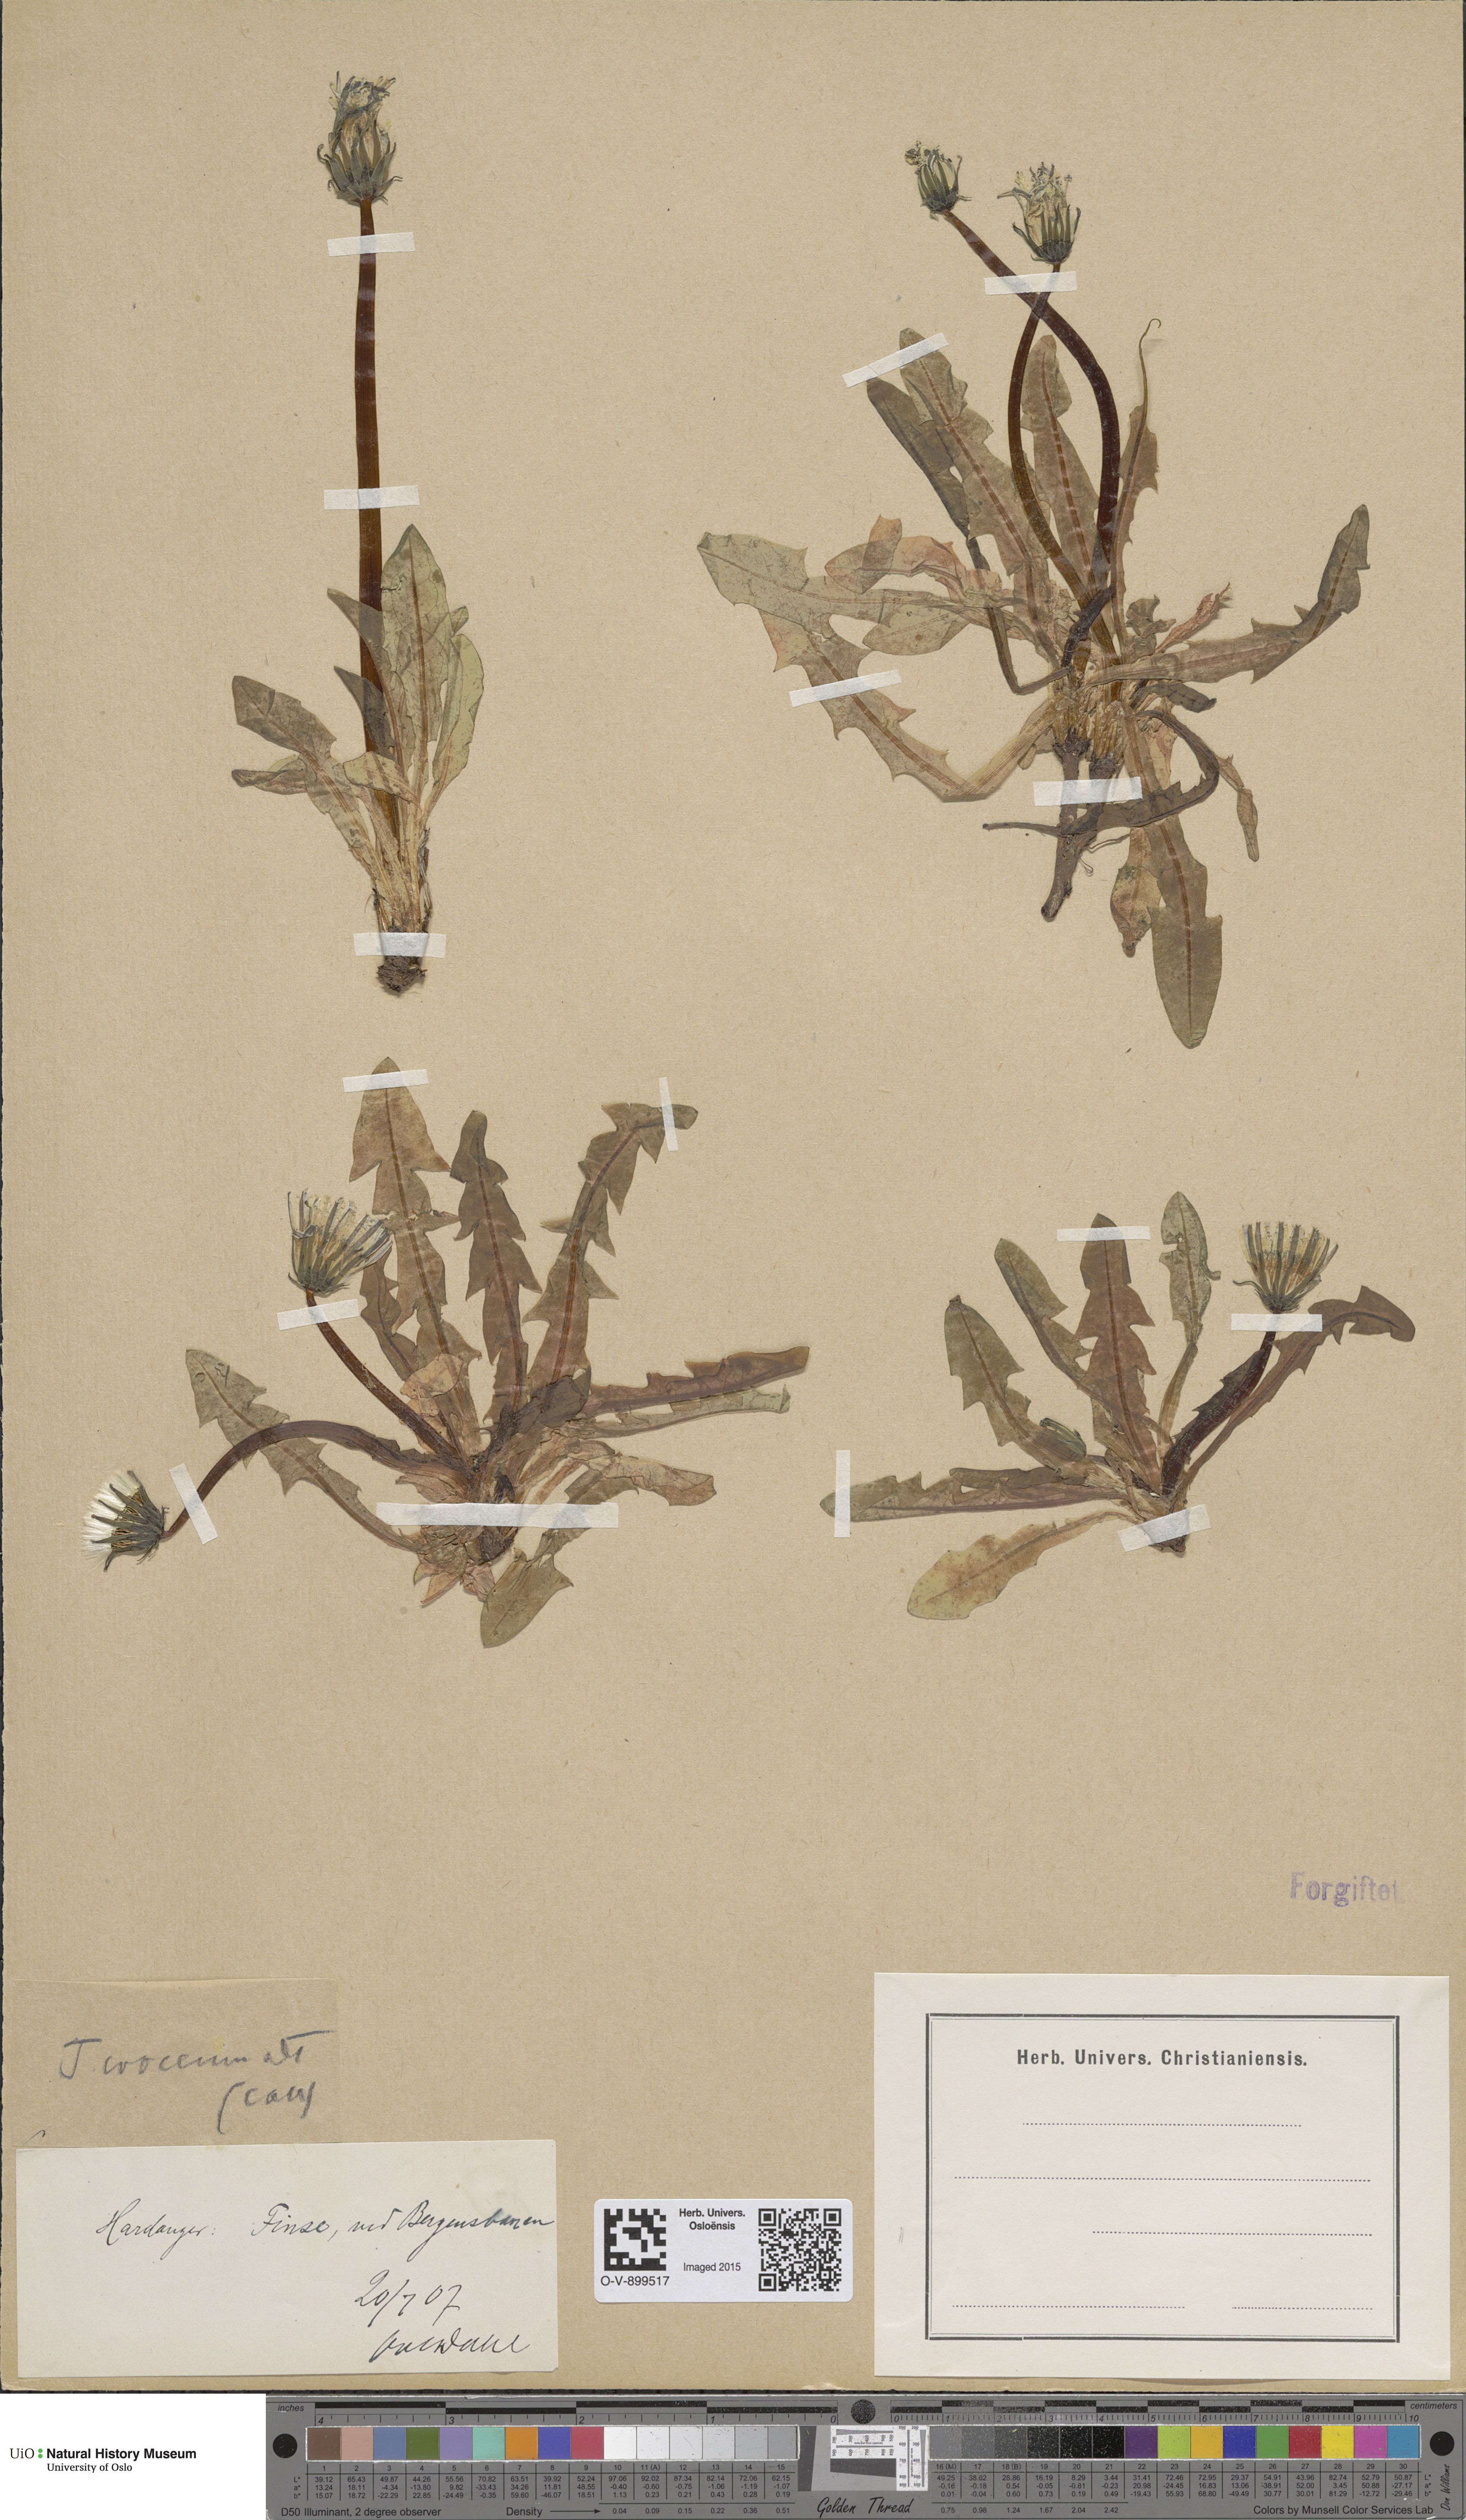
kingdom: Plantae
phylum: Tracheophyta
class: Magnoliopsida
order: Asterales
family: Asteraceae
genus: Taraxacum
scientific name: Taraxacum croceum
